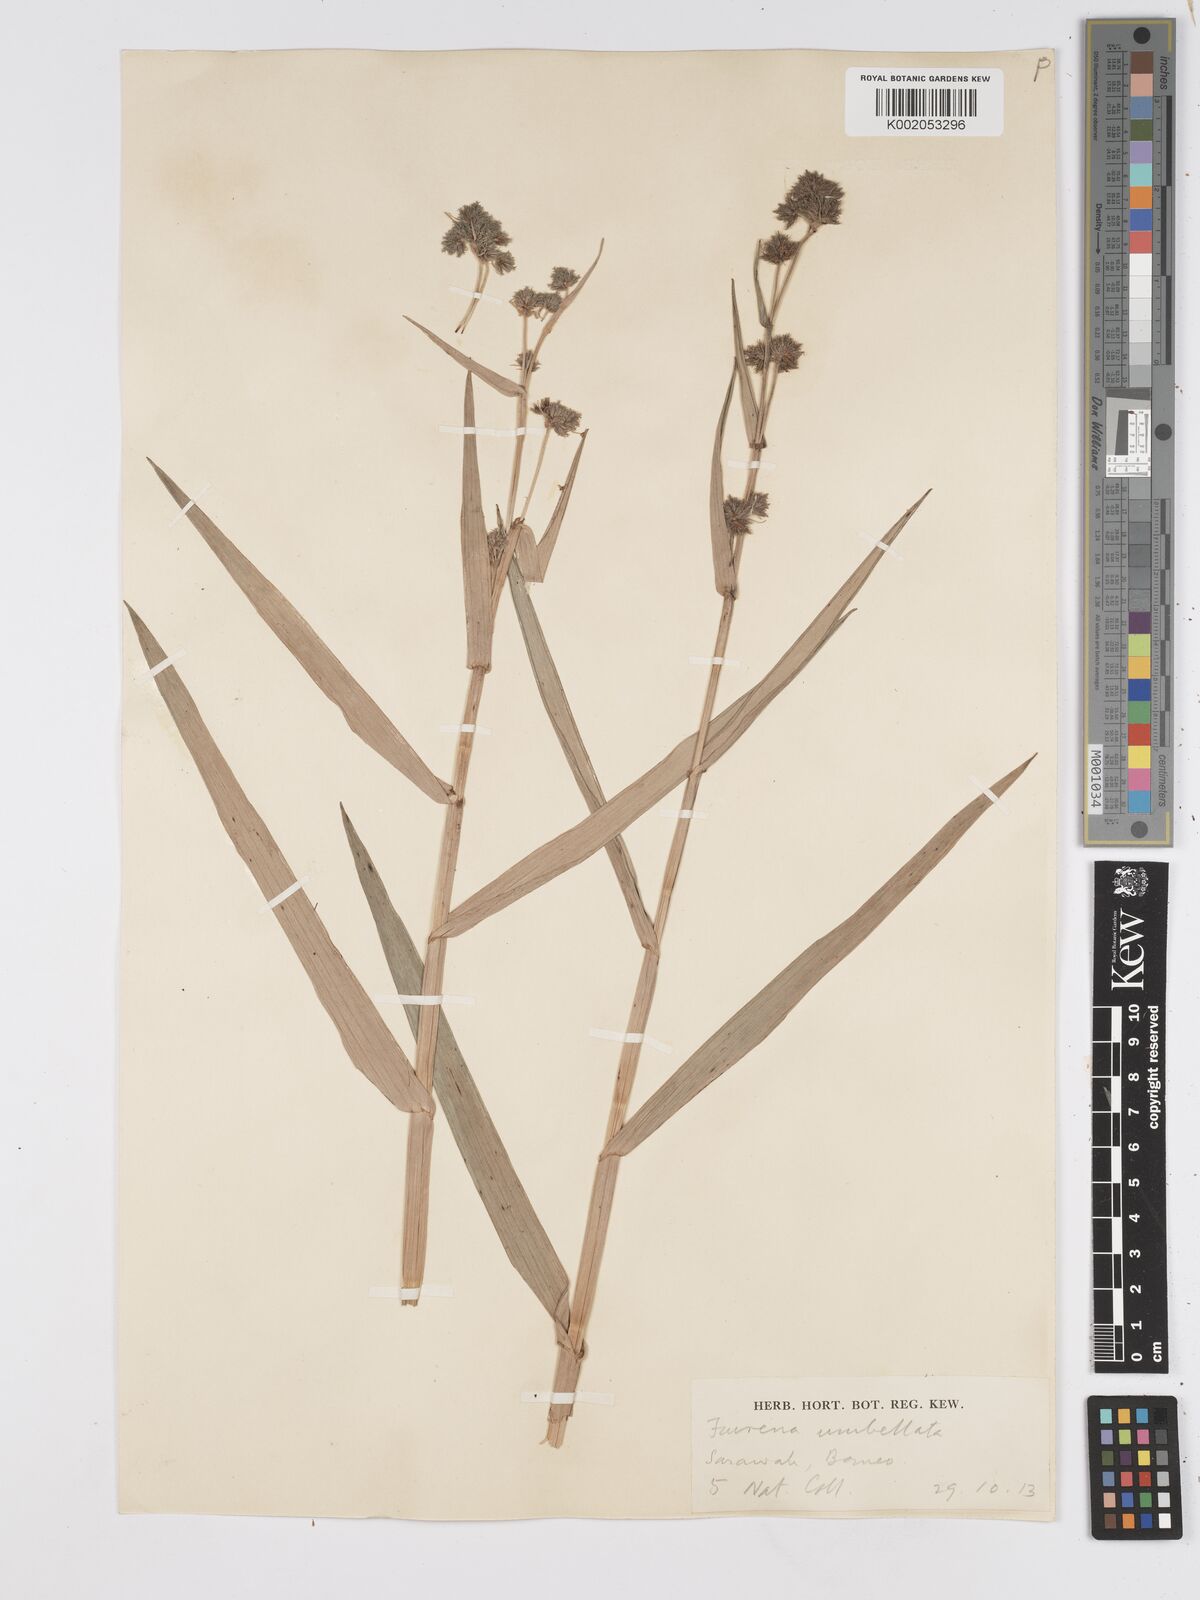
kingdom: Plantae
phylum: Tracheophyta
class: Liliopsida
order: Poales
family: Cyperaceae
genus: Fuirena
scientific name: Fuirena umbellata
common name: Yefen
